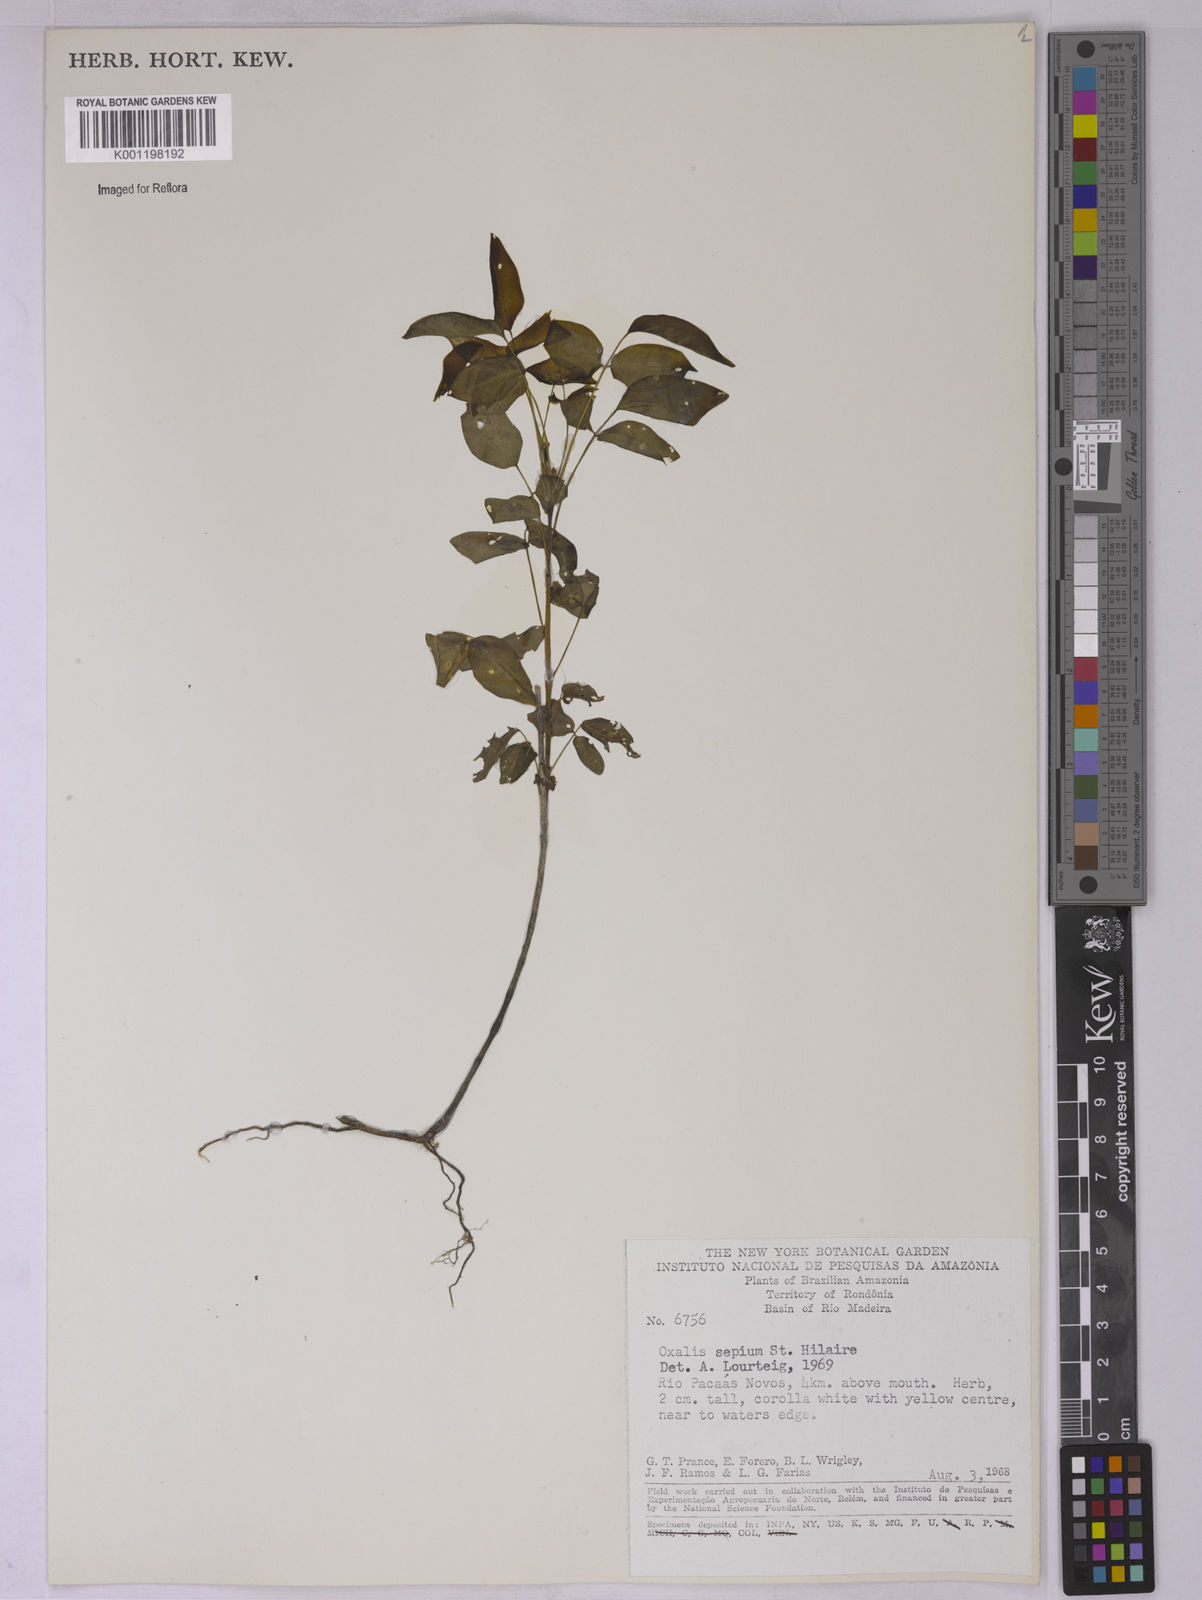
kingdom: Plantae
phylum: Tracheophyta
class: Magnoliopsida
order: Oxalidales
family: Oxalidaceae
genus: Oxalis
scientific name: Oxalis sepium
